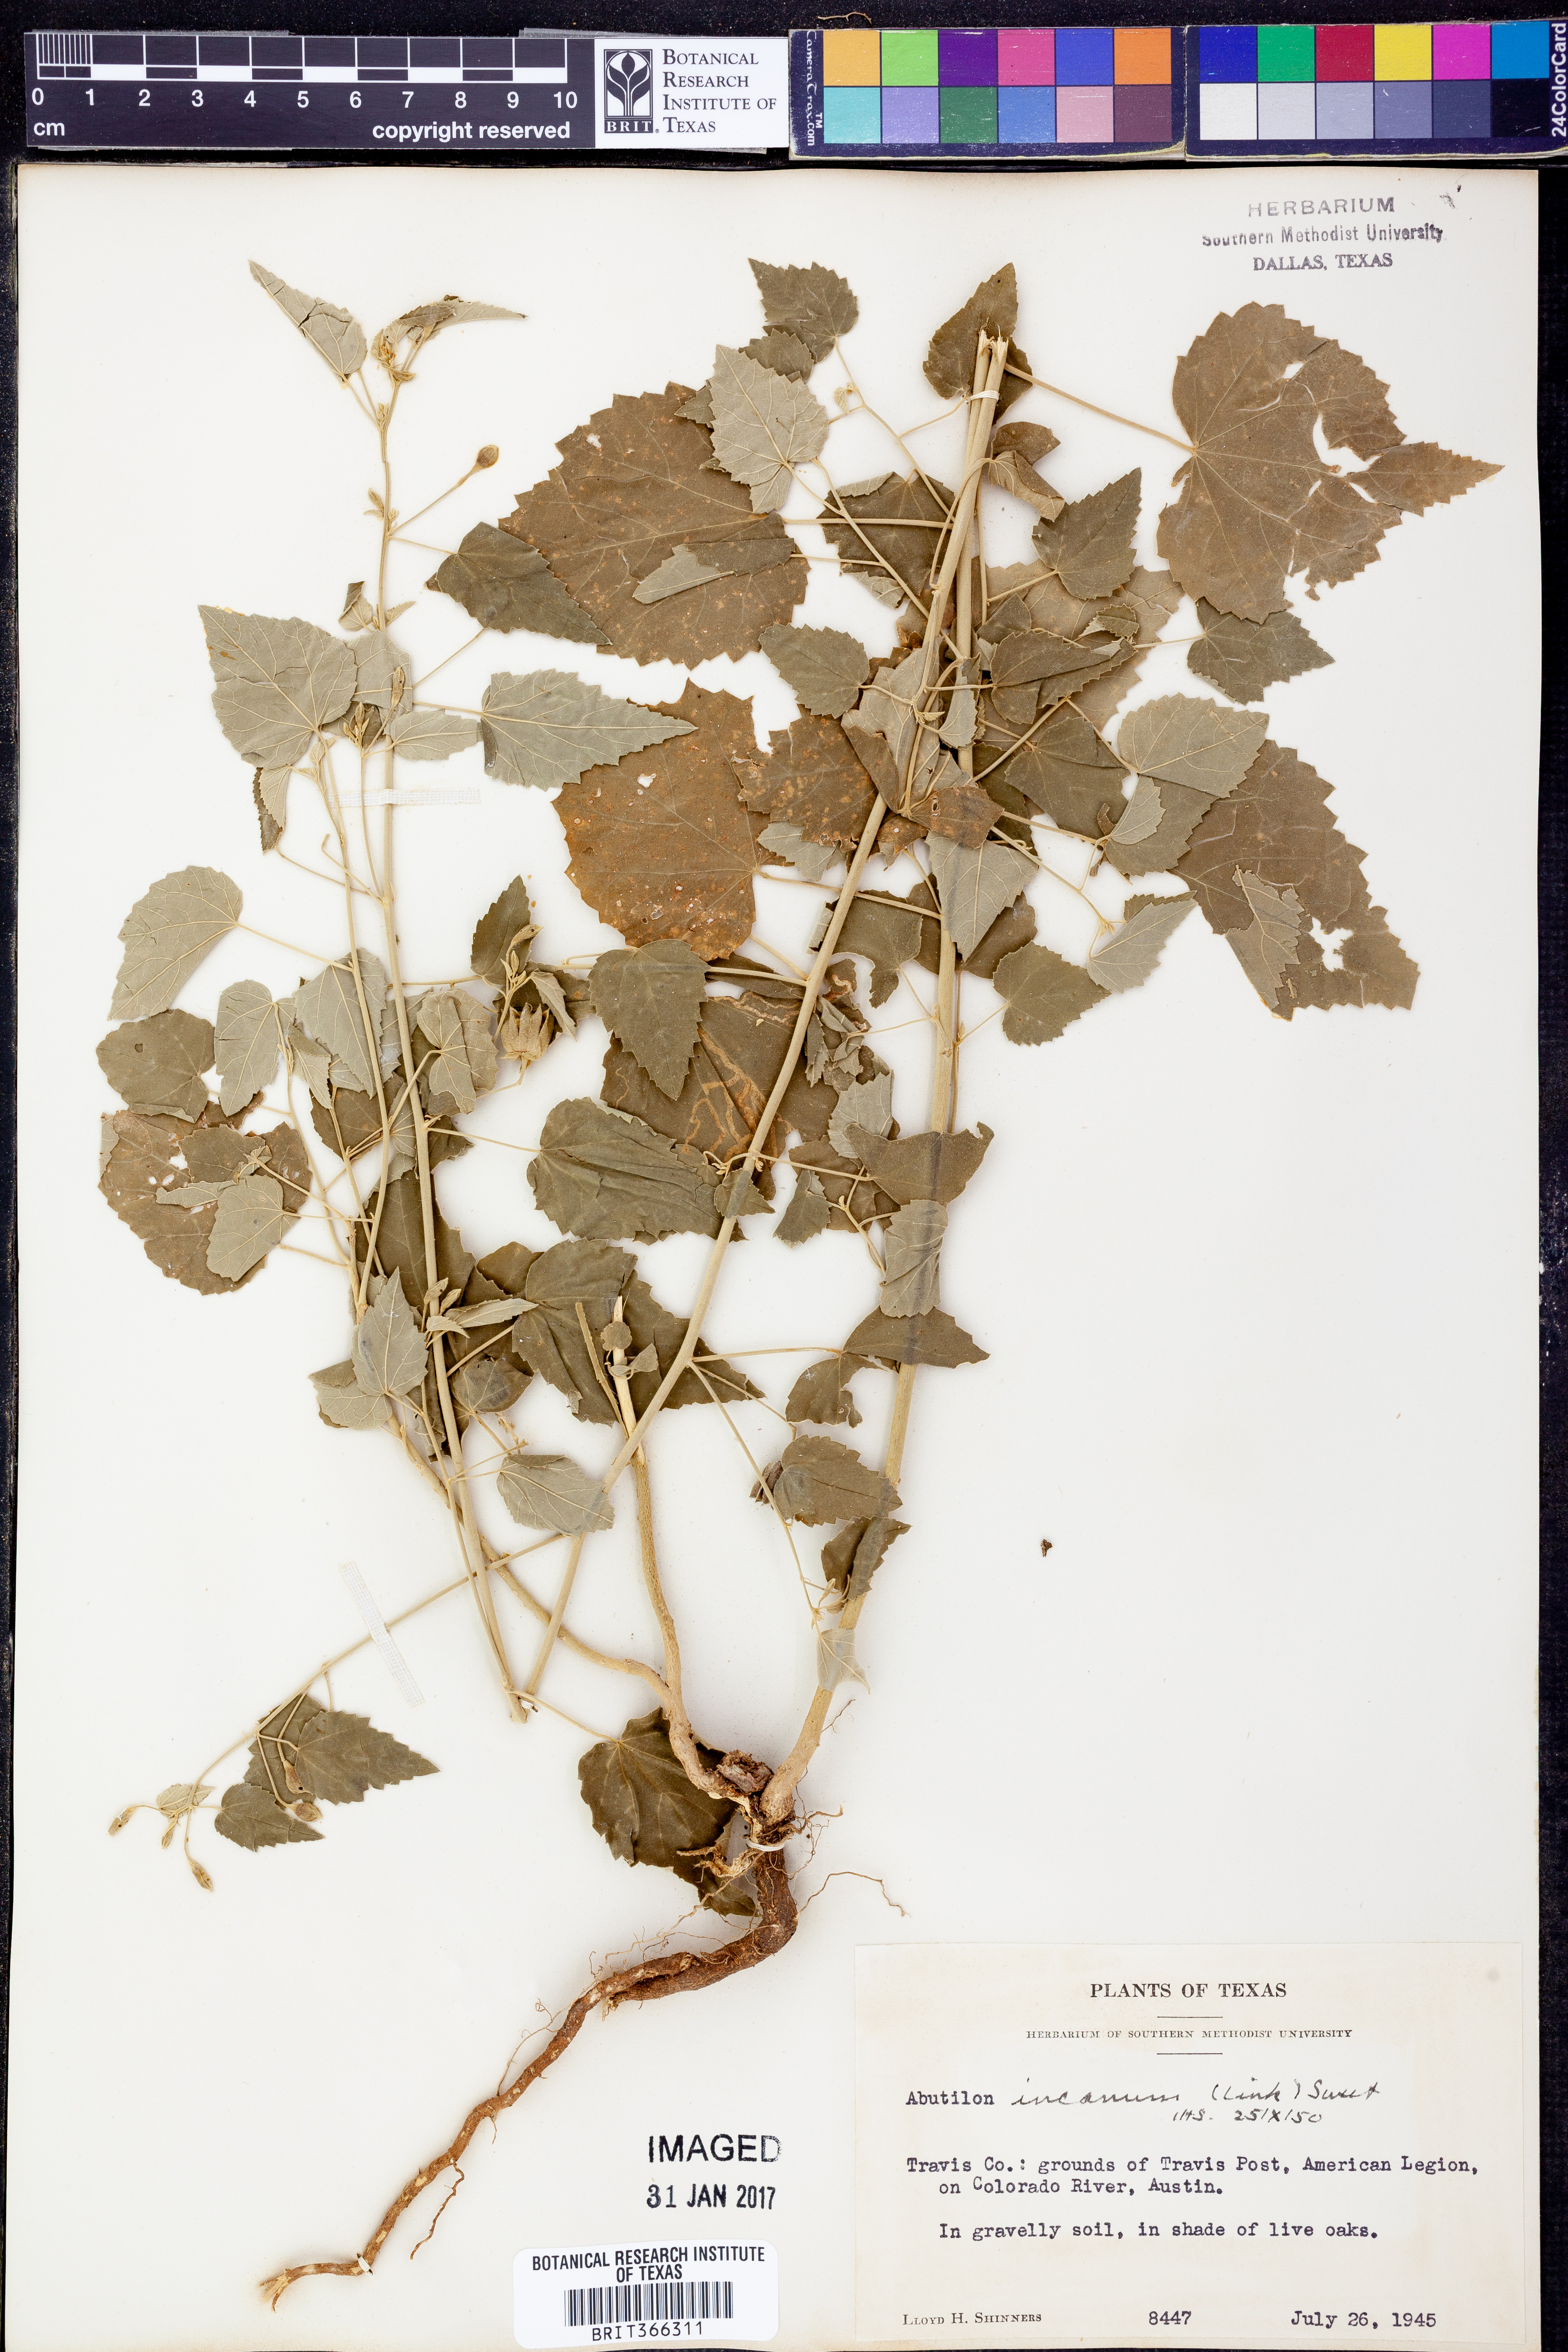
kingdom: Plantae
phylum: Tracheophyta
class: Magnoliopsida
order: Malvales
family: Malvaceae
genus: Abutilon
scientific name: Abutilon incanum
